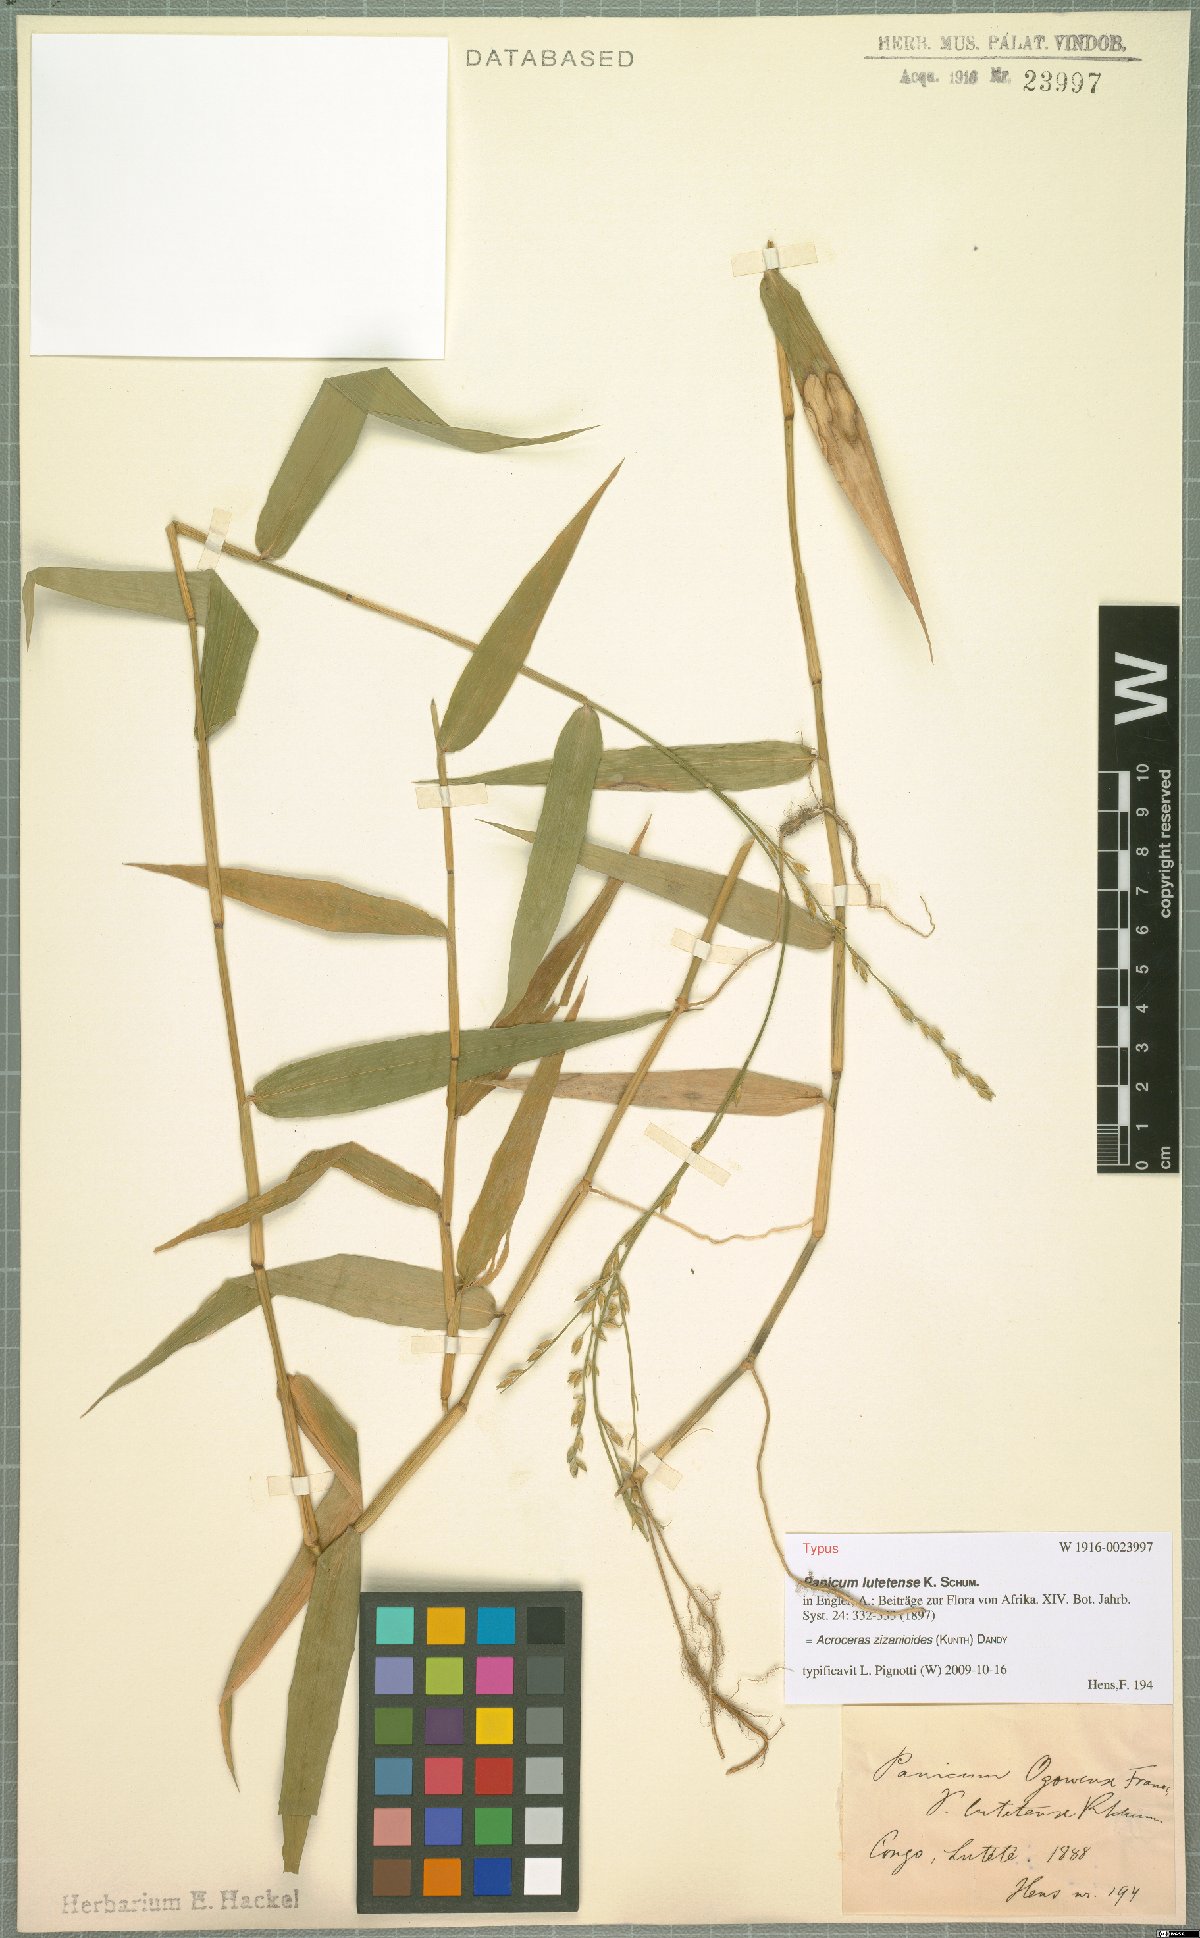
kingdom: Plantae
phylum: Tracheophyta
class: Liliopsida
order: Poales
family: Poaceae
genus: Acroceras
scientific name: Acroceras zizanioides
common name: Oat grass
